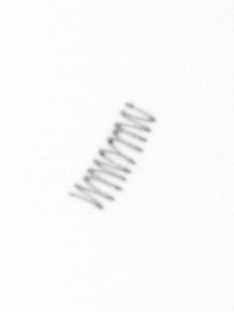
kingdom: Chromista
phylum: Ochrophyta
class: Bacillariophyceae
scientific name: Bacillariophyceae
